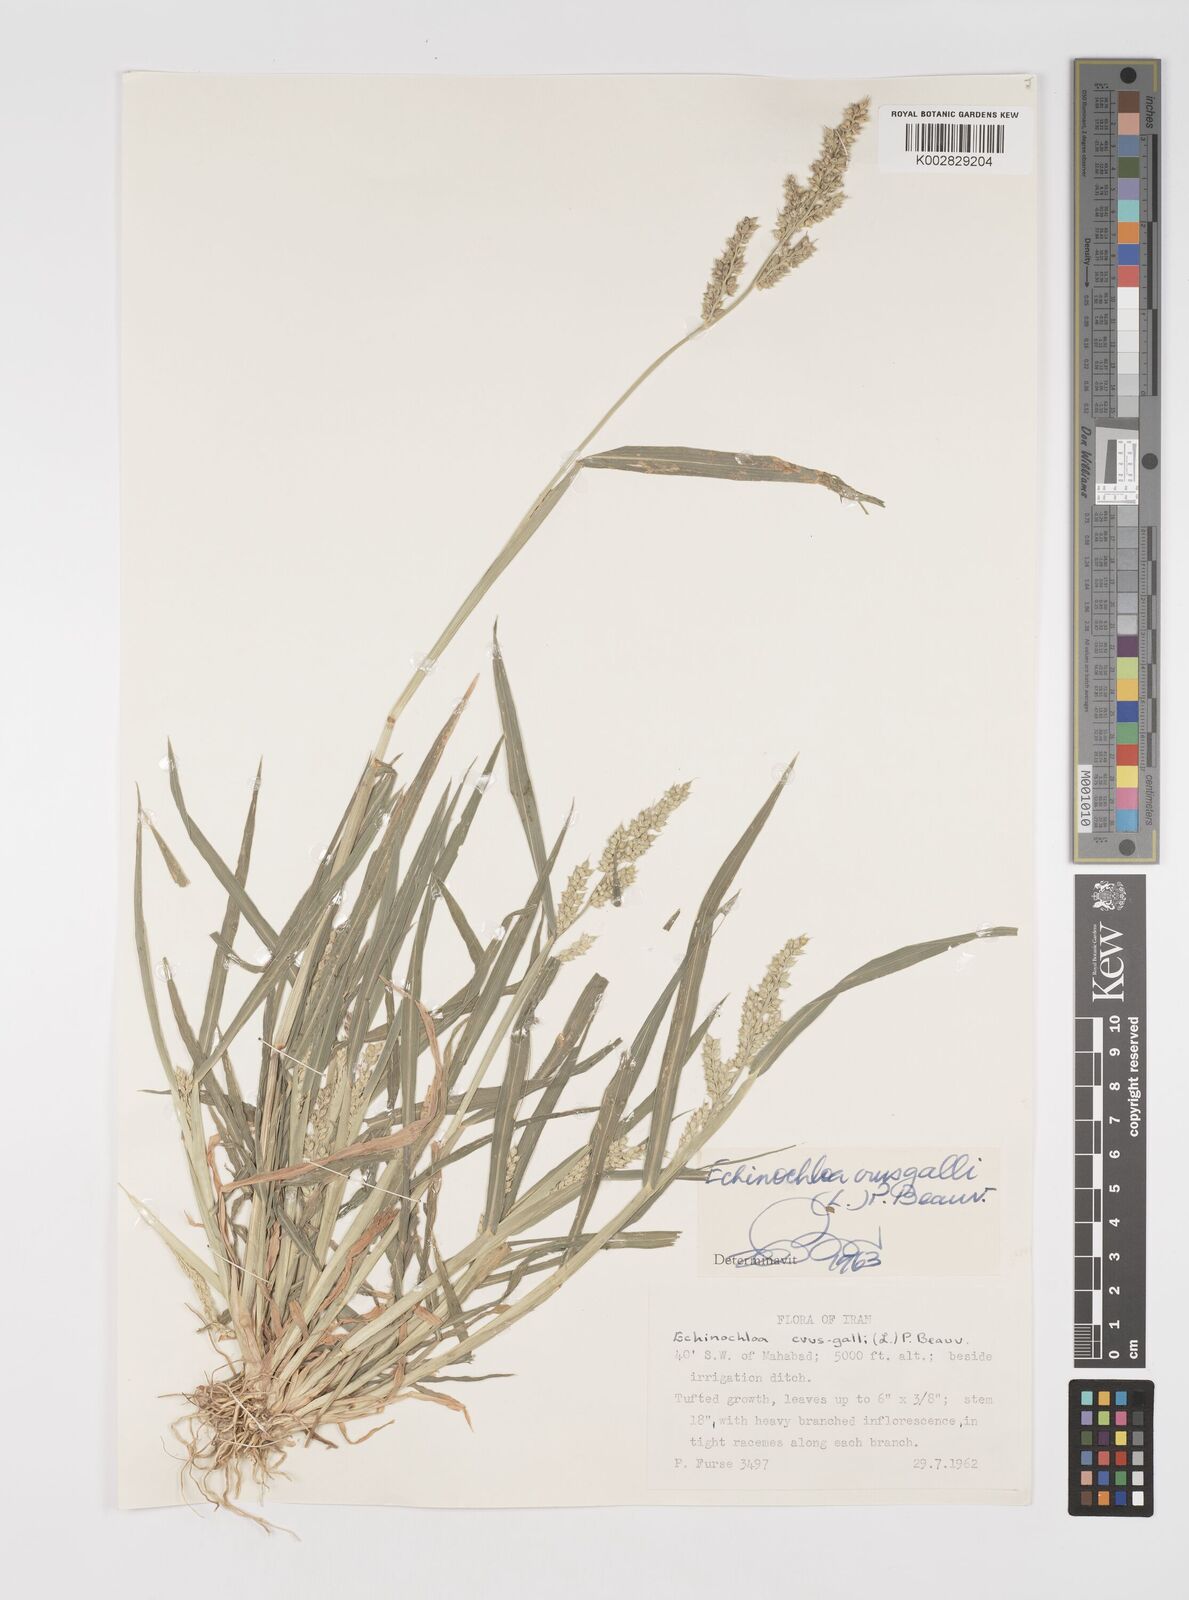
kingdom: Plantae
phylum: Tracheophyta
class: Liliopsida
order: Poales
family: Poaceae
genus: Echinochloa
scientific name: Echinochloa crus-galli
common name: Cockspur
